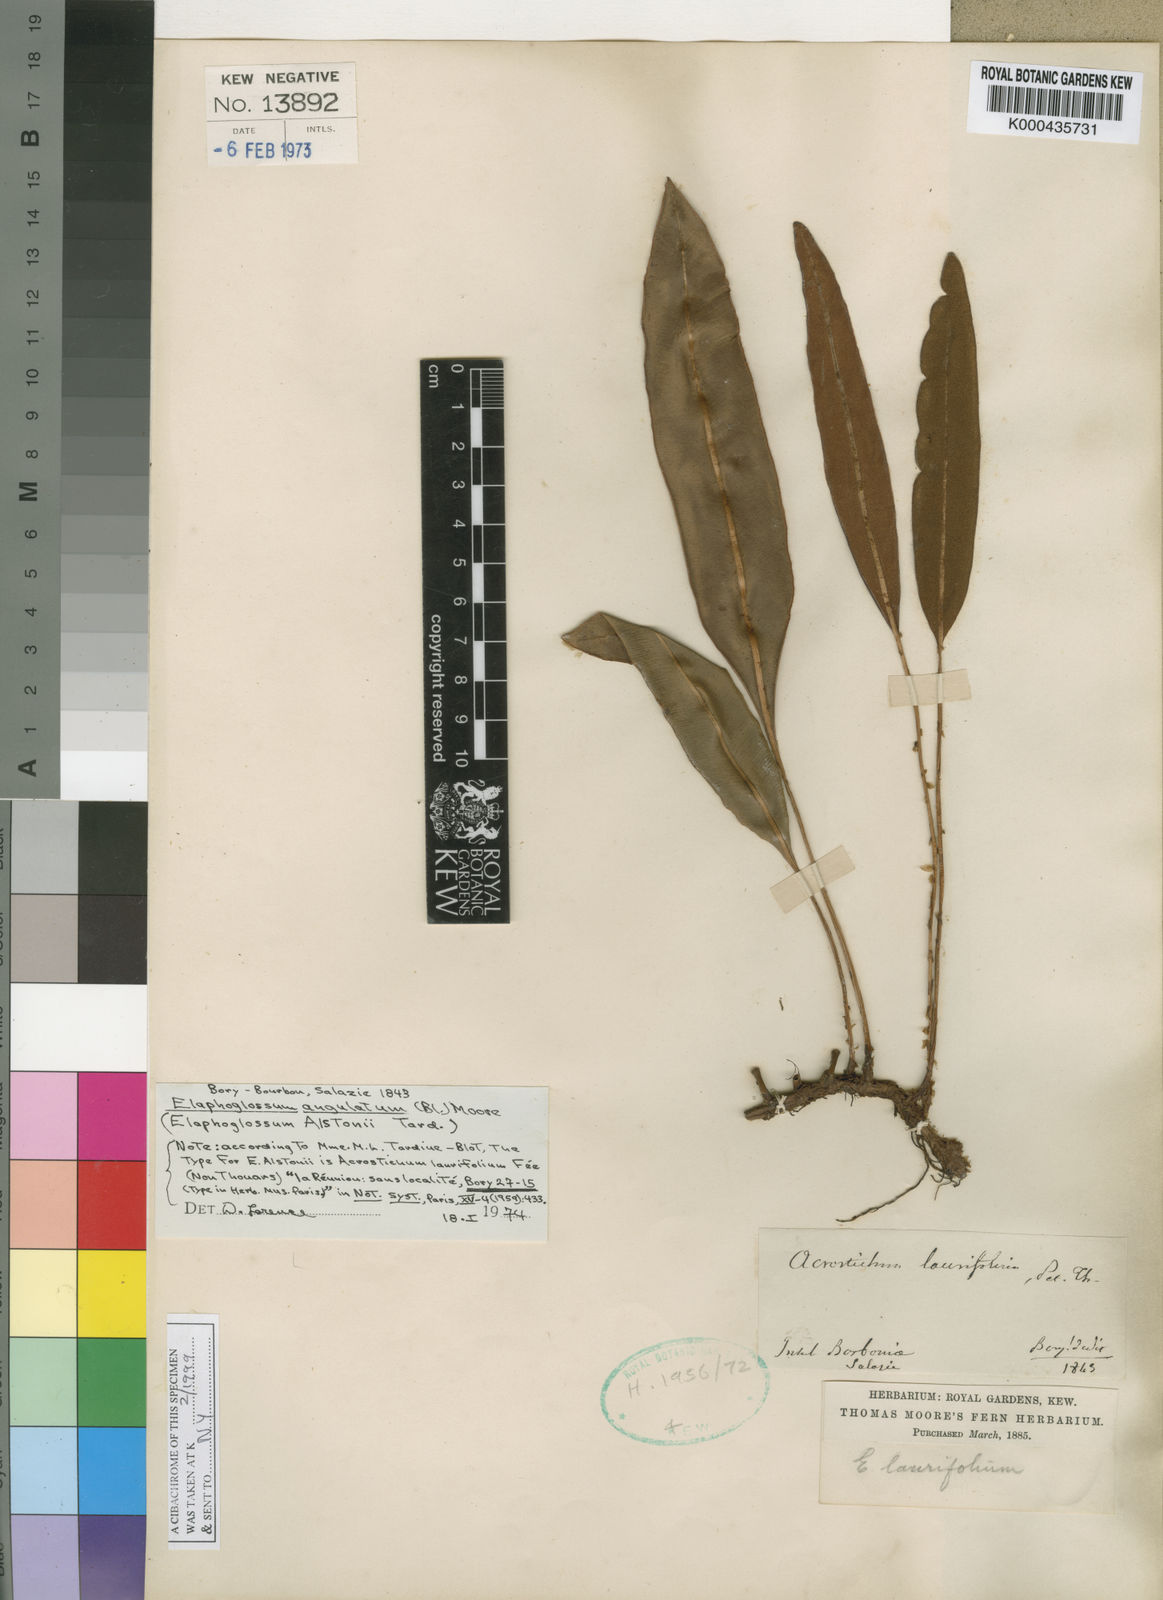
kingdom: Plantae
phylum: Tracheophyta
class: Polypodiopsida
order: Polypodiales
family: Dryopteridaceae
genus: Elaphoglossum
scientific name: Elaphoglossum angulatum
